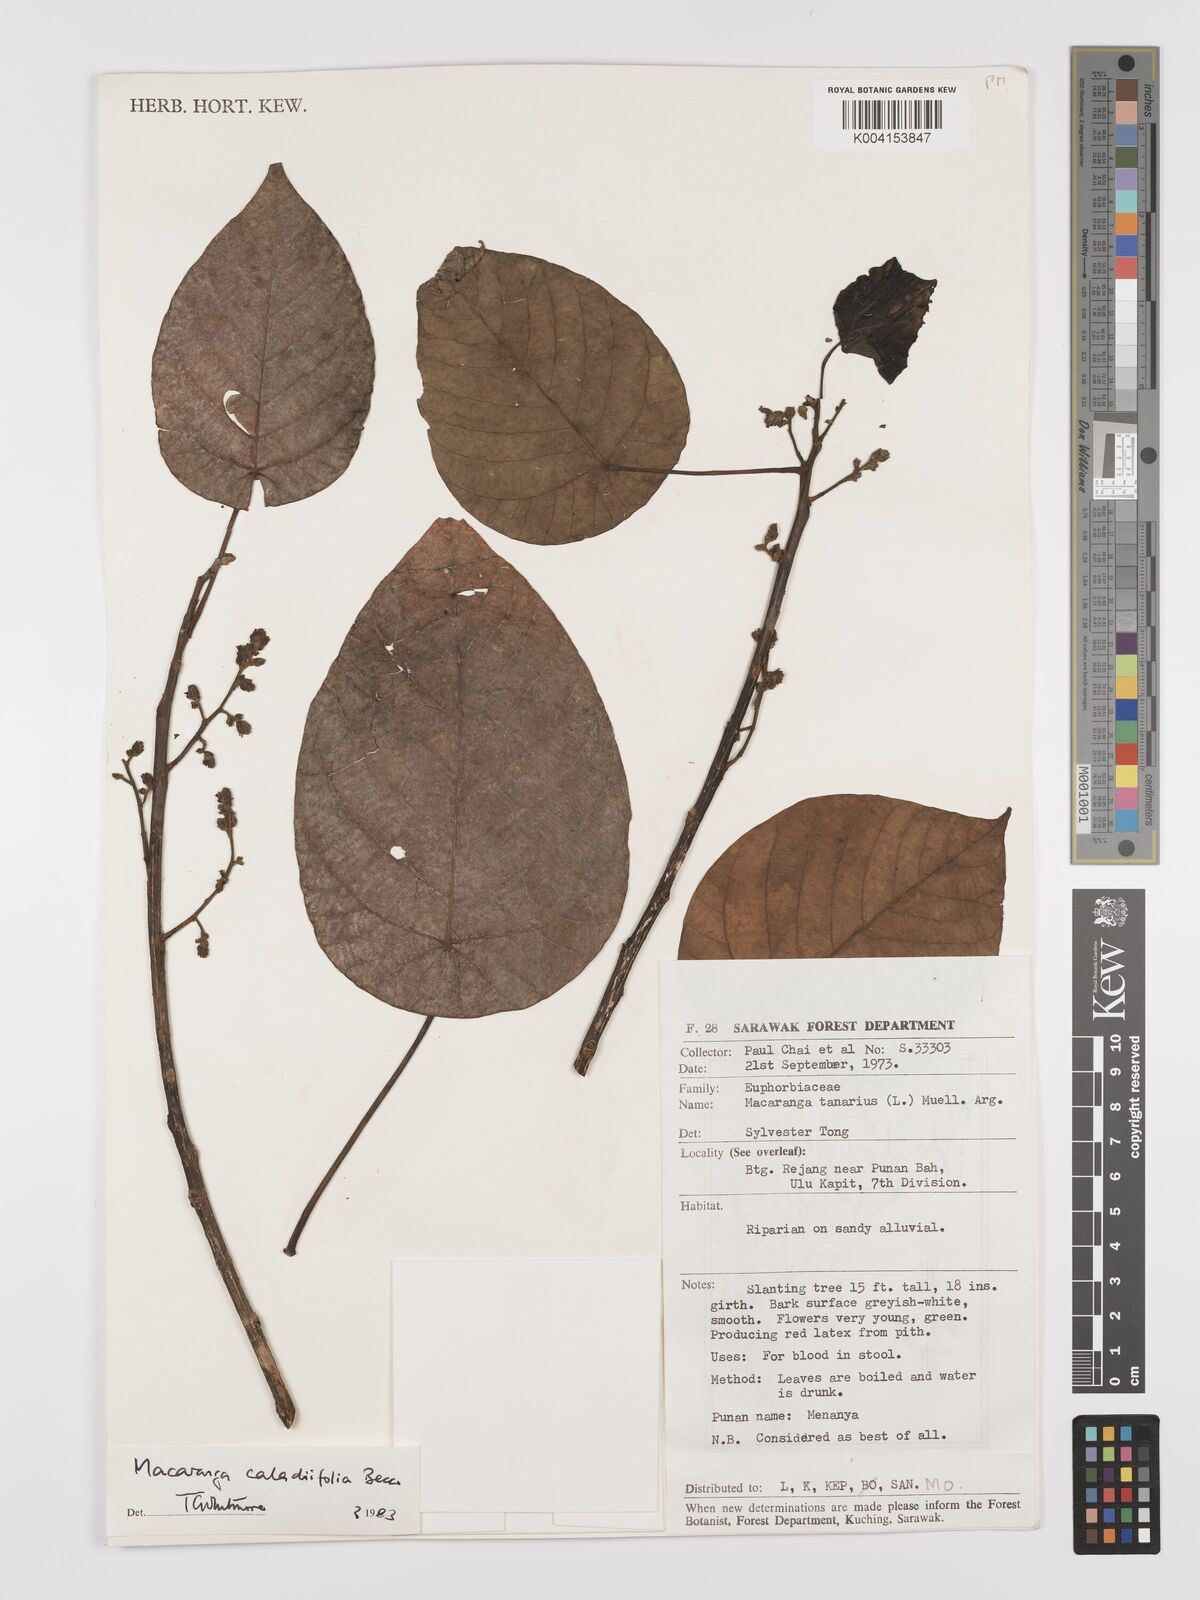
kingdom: Plantae
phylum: Tracheophyta
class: Magnoliopsida
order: Malpighiales
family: Euphorbiaceae
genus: Macaranga
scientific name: Macaranga caladiifolia
